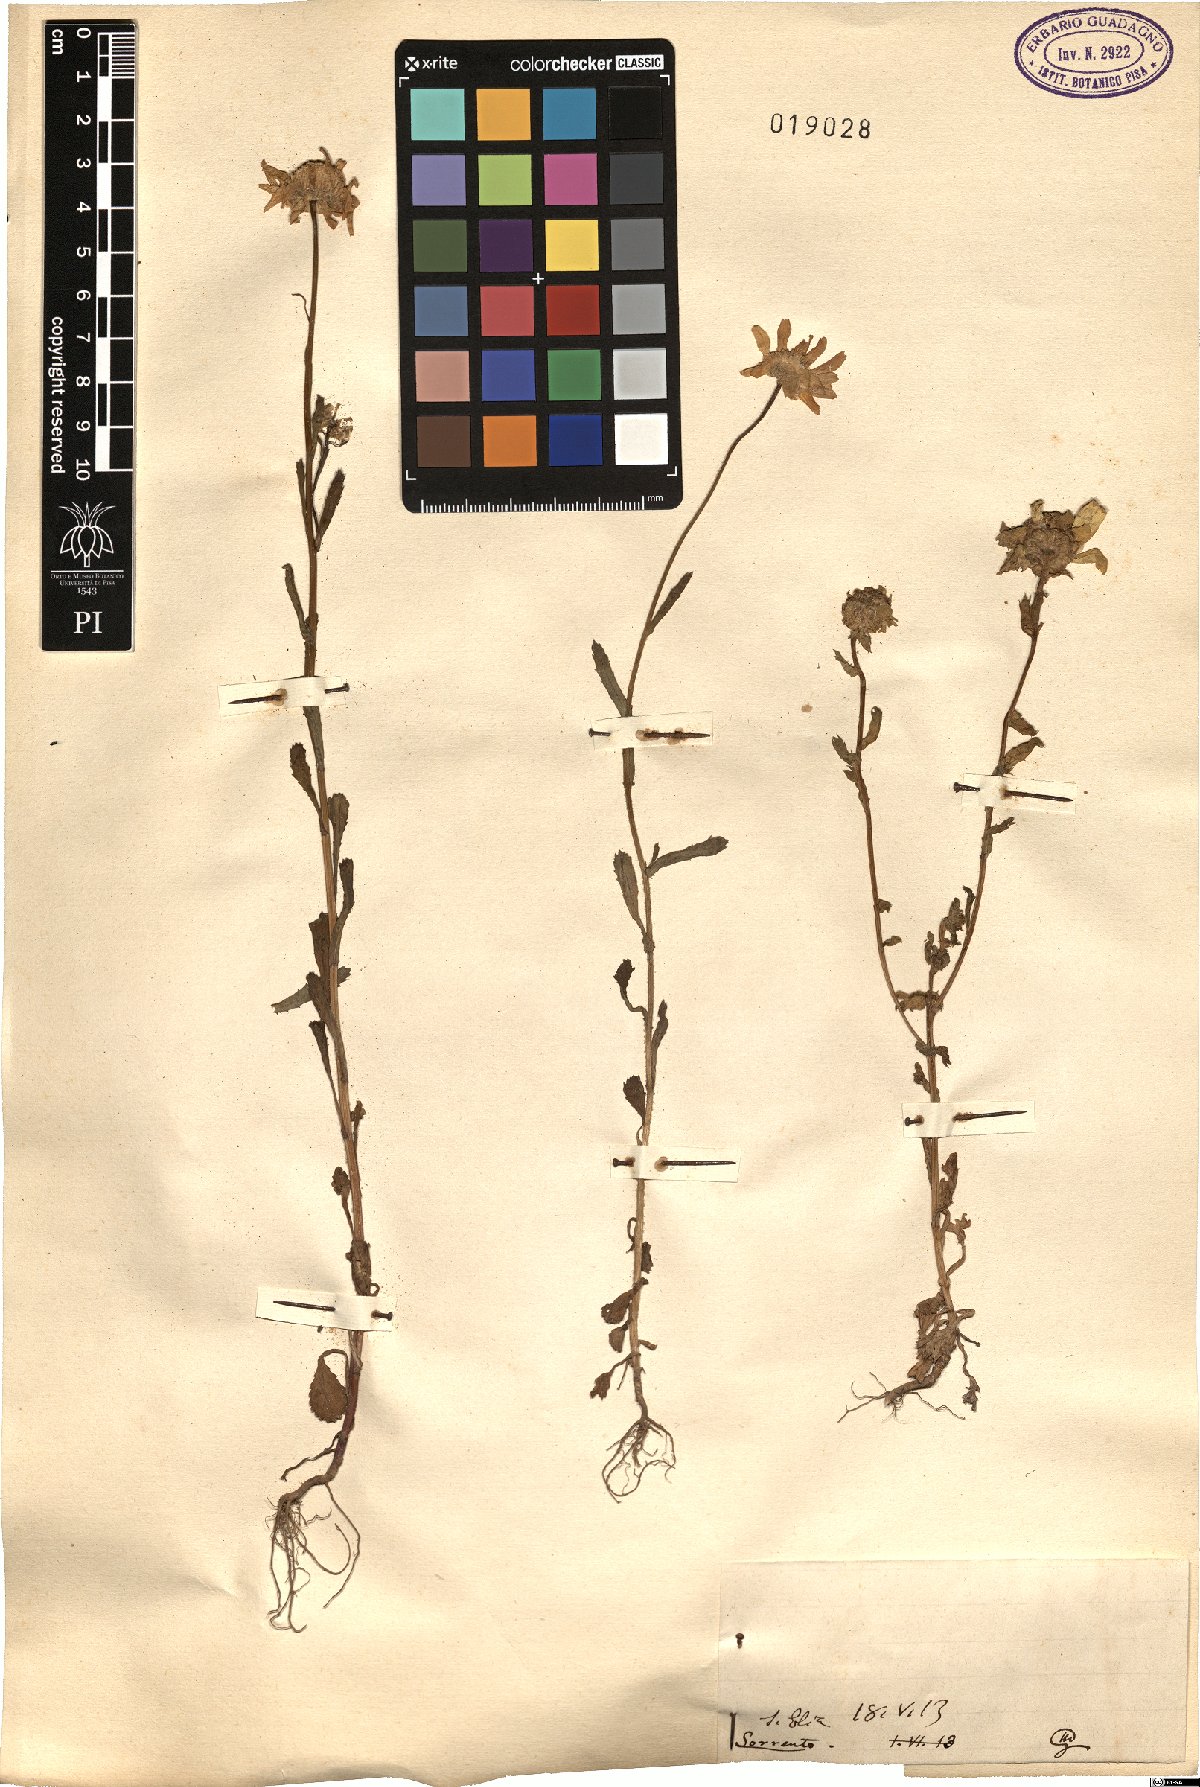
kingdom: Plantae
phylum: Tracheophyta
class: Magnoliopsida
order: Asterales
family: Asteraceae
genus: Pyrethrum
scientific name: Pyrethrum
